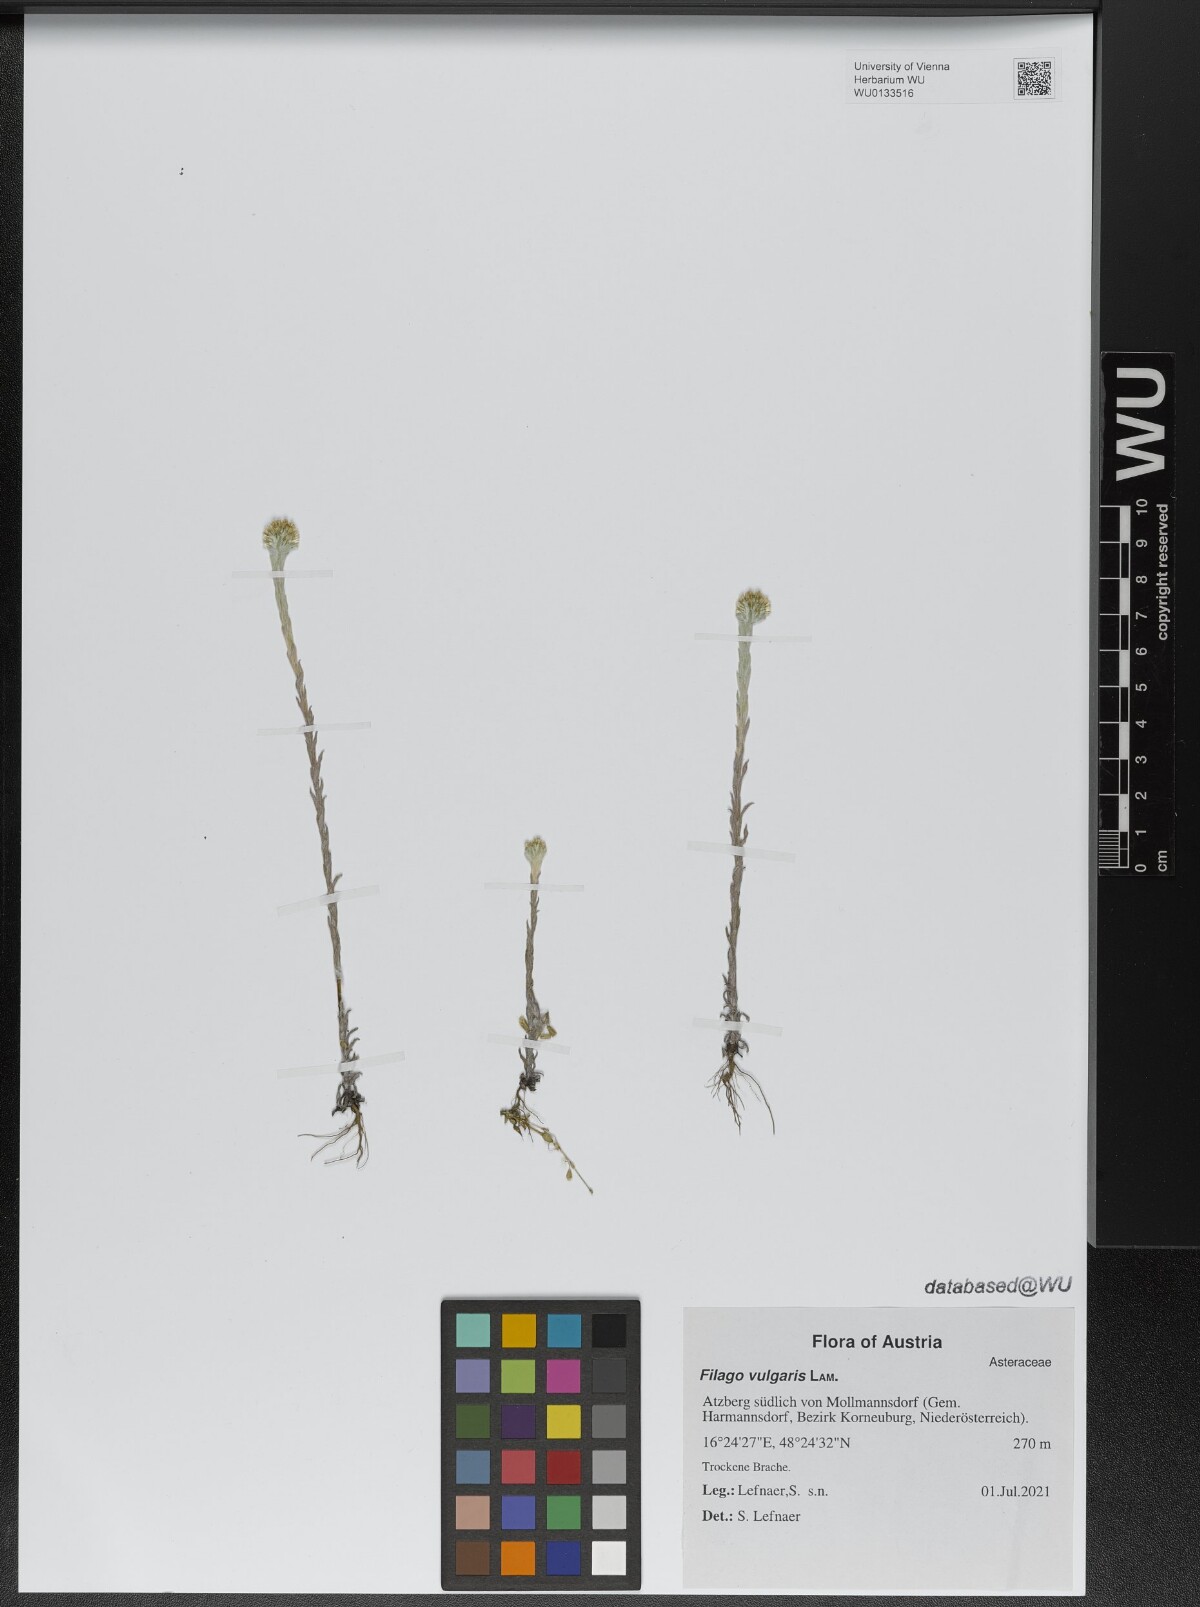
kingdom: Plantae
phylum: Tracheophyta
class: Magnoliopsida
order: Asterales
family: Asteraceae
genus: Filago
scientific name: Filago germanica
